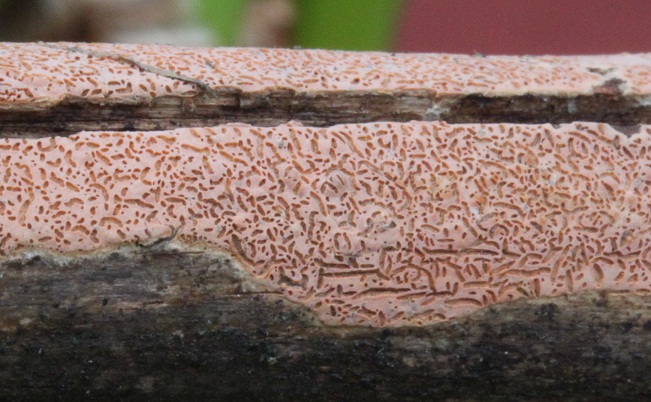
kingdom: Fungi
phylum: Basidiomycota
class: Agaricomycetes
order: Russulales
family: Peniophoraceae
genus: Peniophora
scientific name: Peniophora incarnata
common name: laksefarvet voksskind
